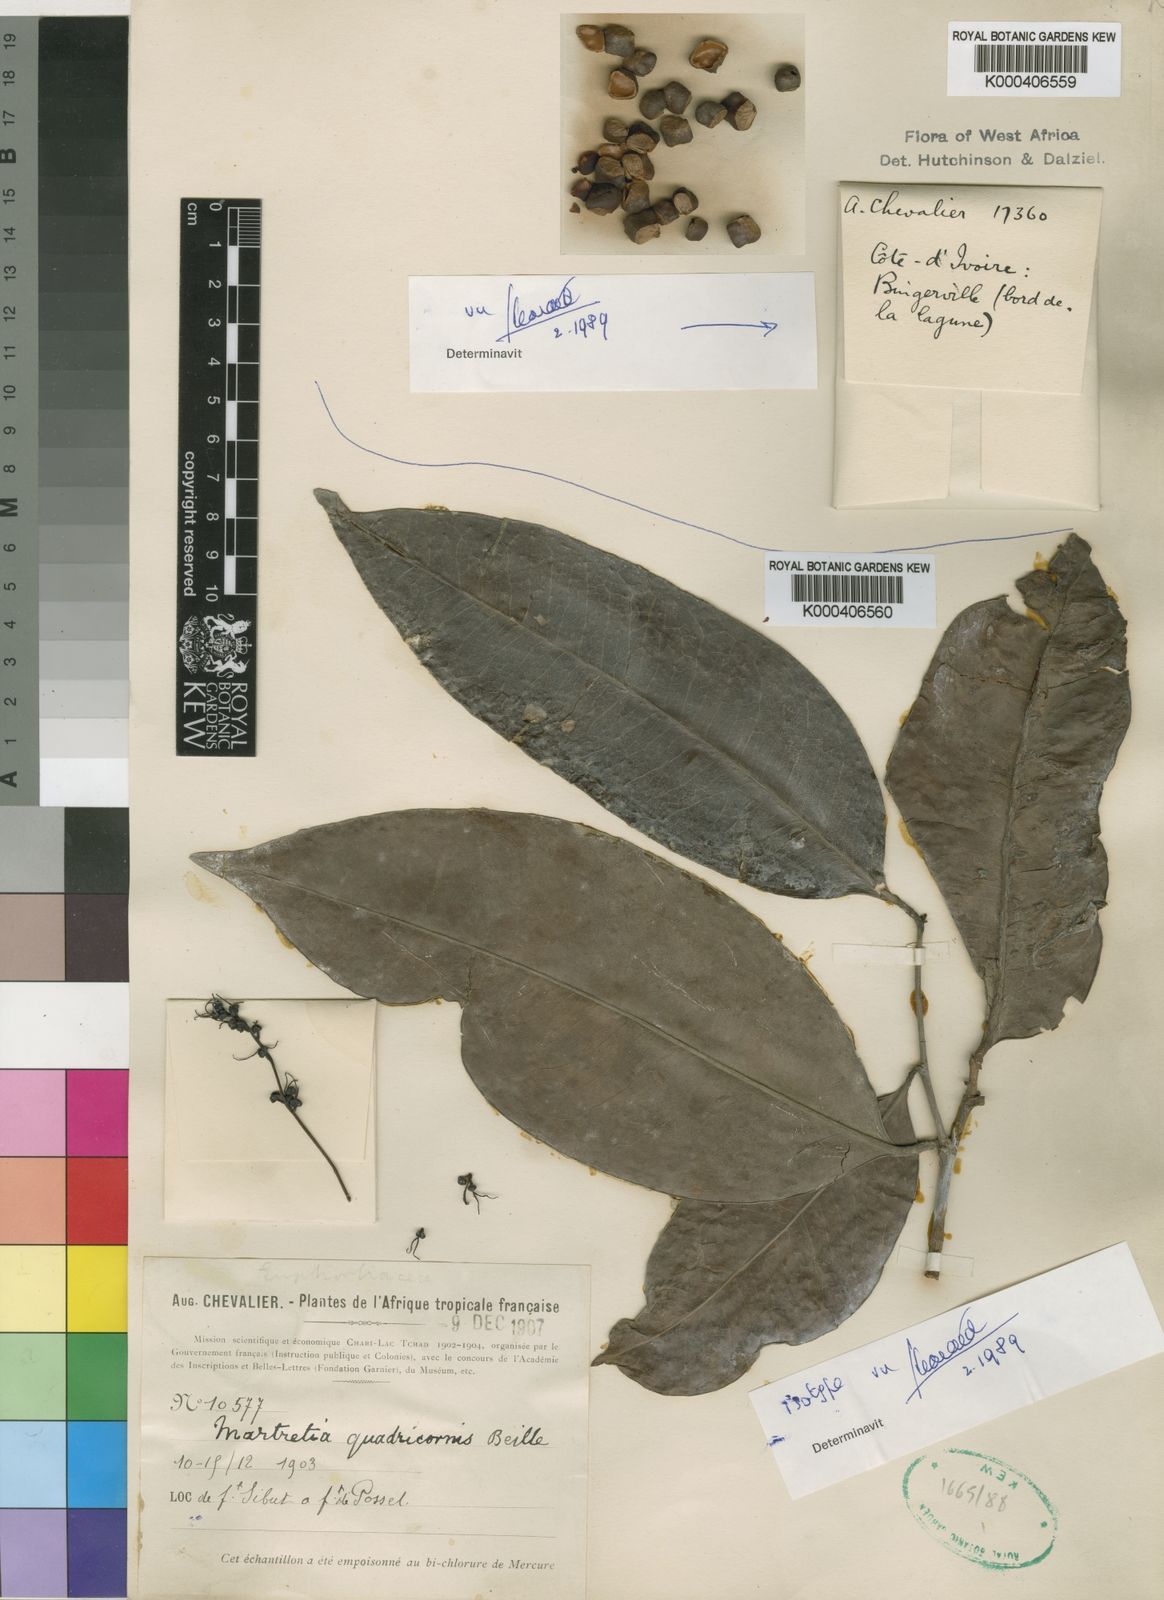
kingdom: Plantae
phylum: Tracheophyta
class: Magnoliopsida
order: Malpighiales
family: Phyllanthaceae
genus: Martretia
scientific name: Martretia quadricornis
